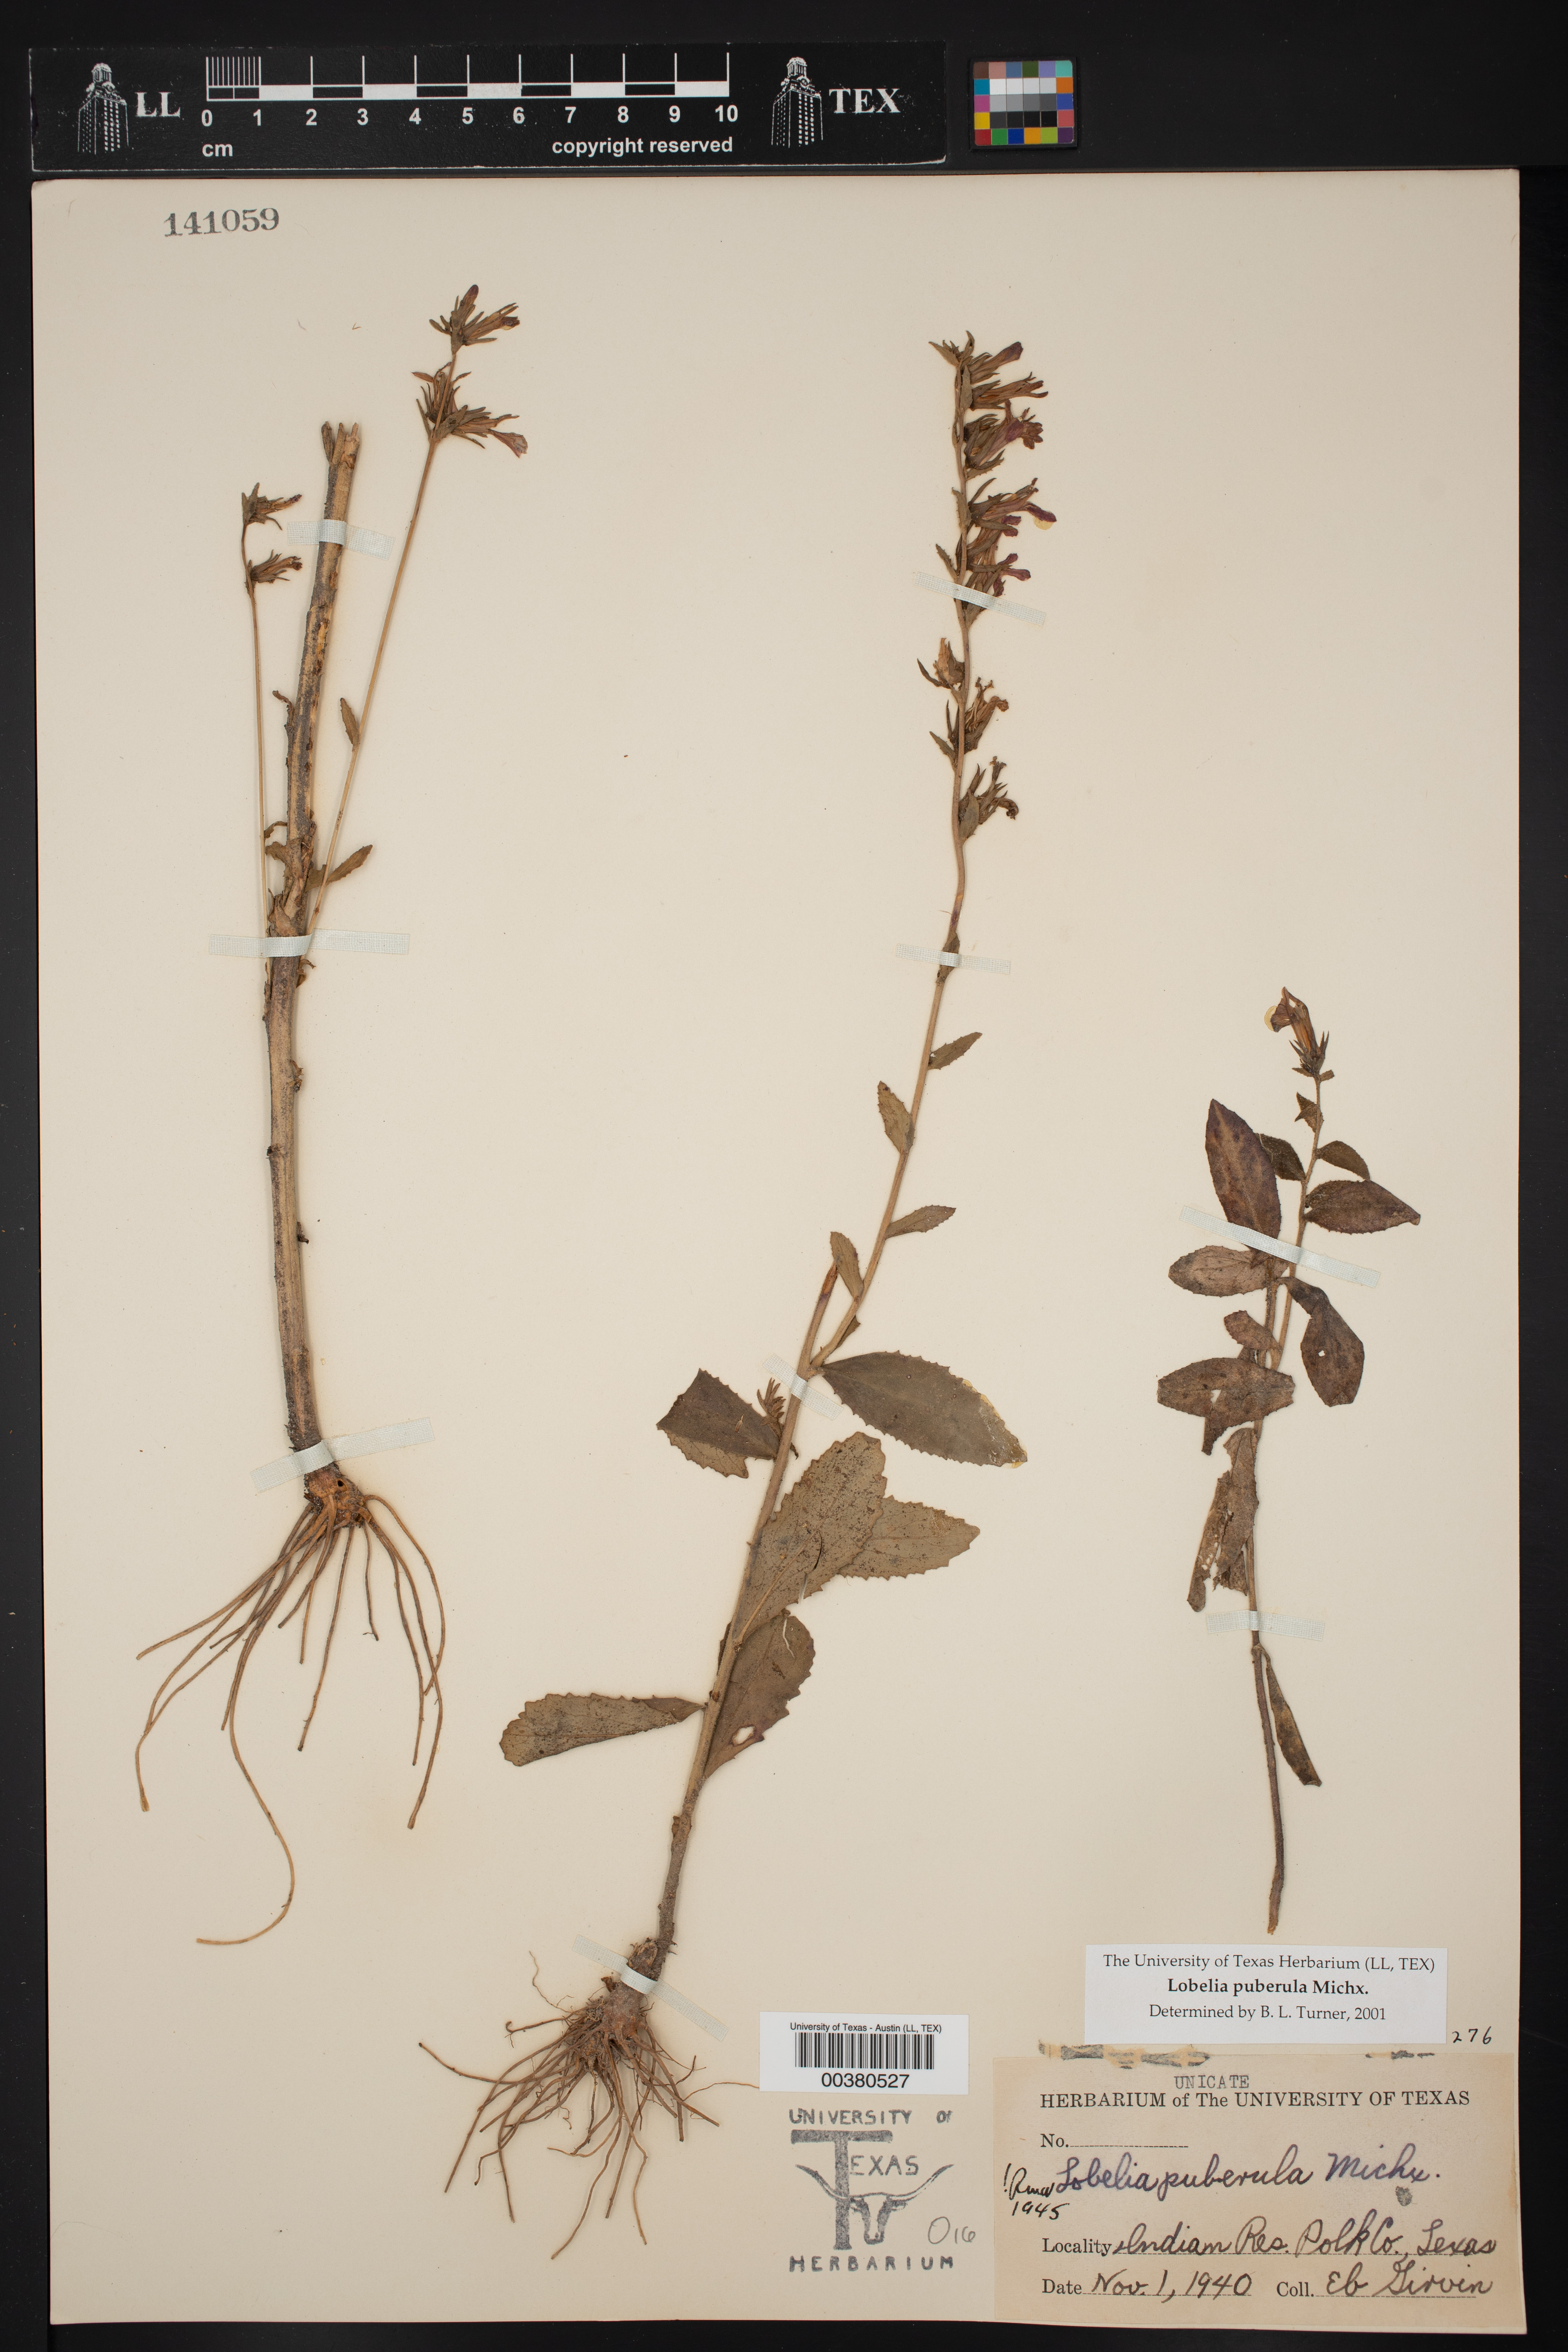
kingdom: Plantae
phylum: Tracheophyta
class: Magnoliopsida
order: Asterales
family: Campanulaceae
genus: Lobelia
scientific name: Lobelia puberula
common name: Purple dewdrop
